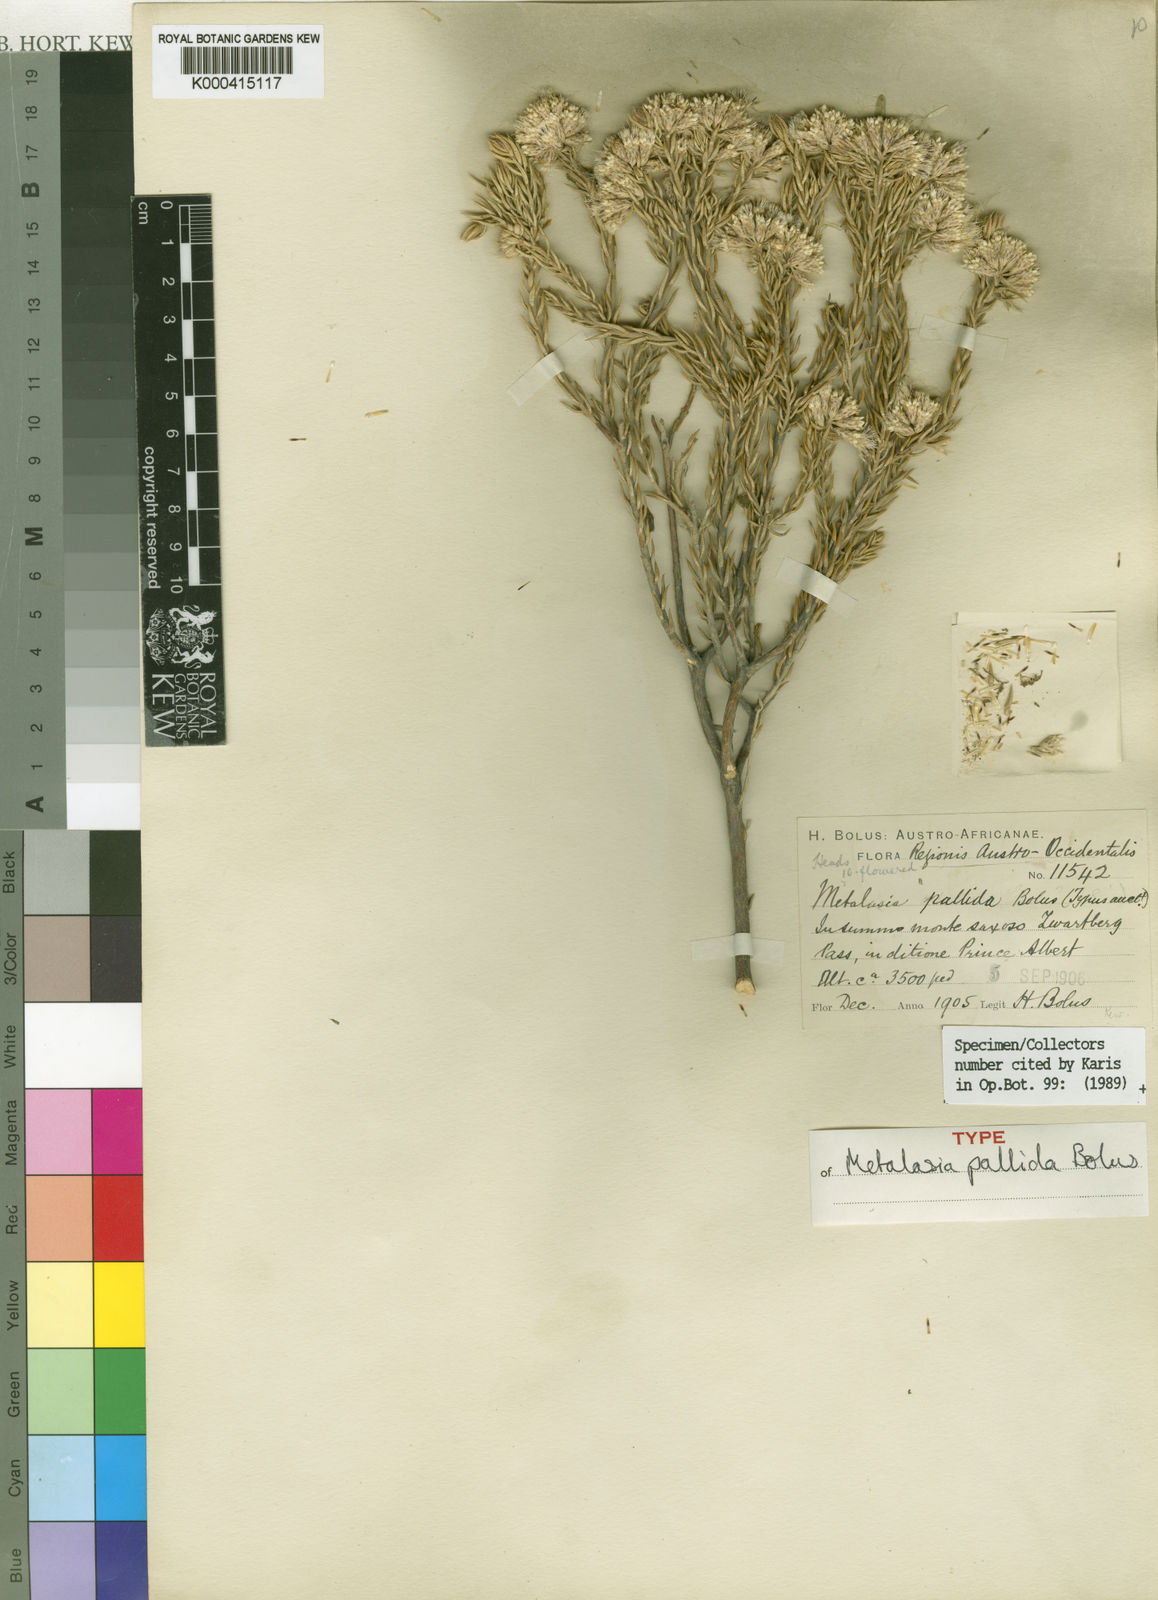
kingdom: Plantae
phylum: Tracheophyta
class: Magnoliopsida
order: Asterales
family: Asteraceae
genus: Metalasia
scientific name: Metalasia pallida
